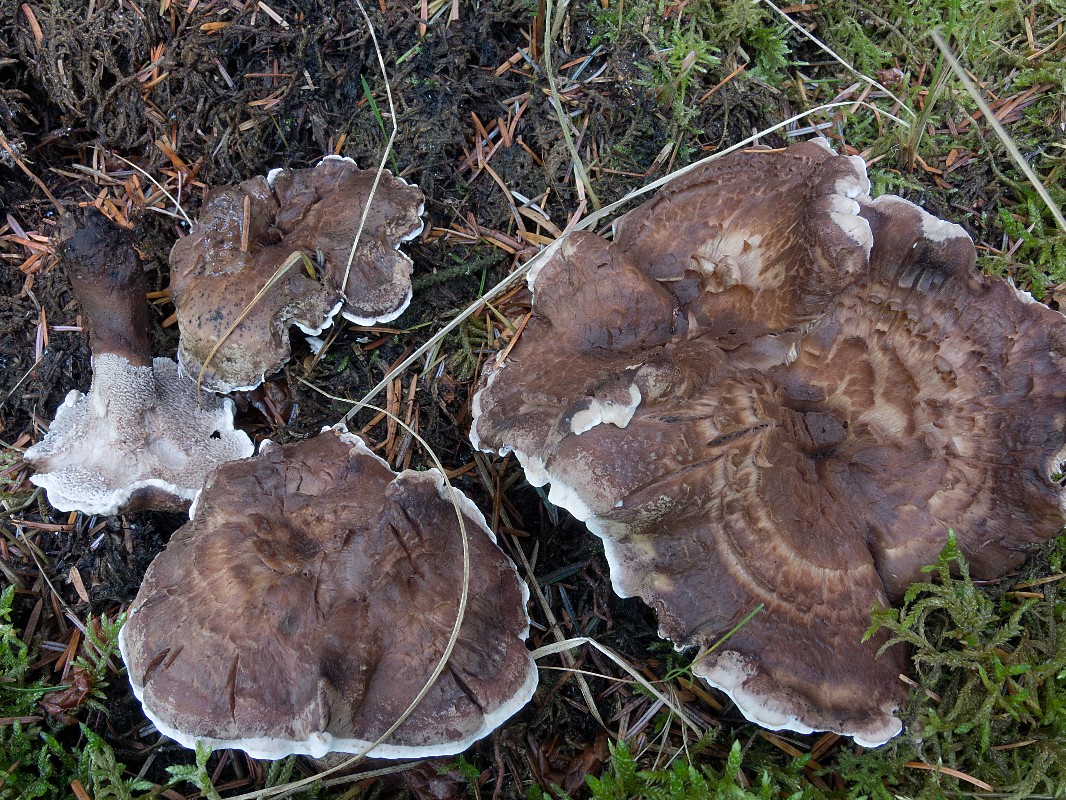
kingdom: Fungi
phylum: Basidiomycota
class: Agaricomycetes
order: Thelephorales
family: Thelephoraceae
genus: Phellodon
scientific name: Phellodon violascens
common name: violetbrun duftpigsvamp
